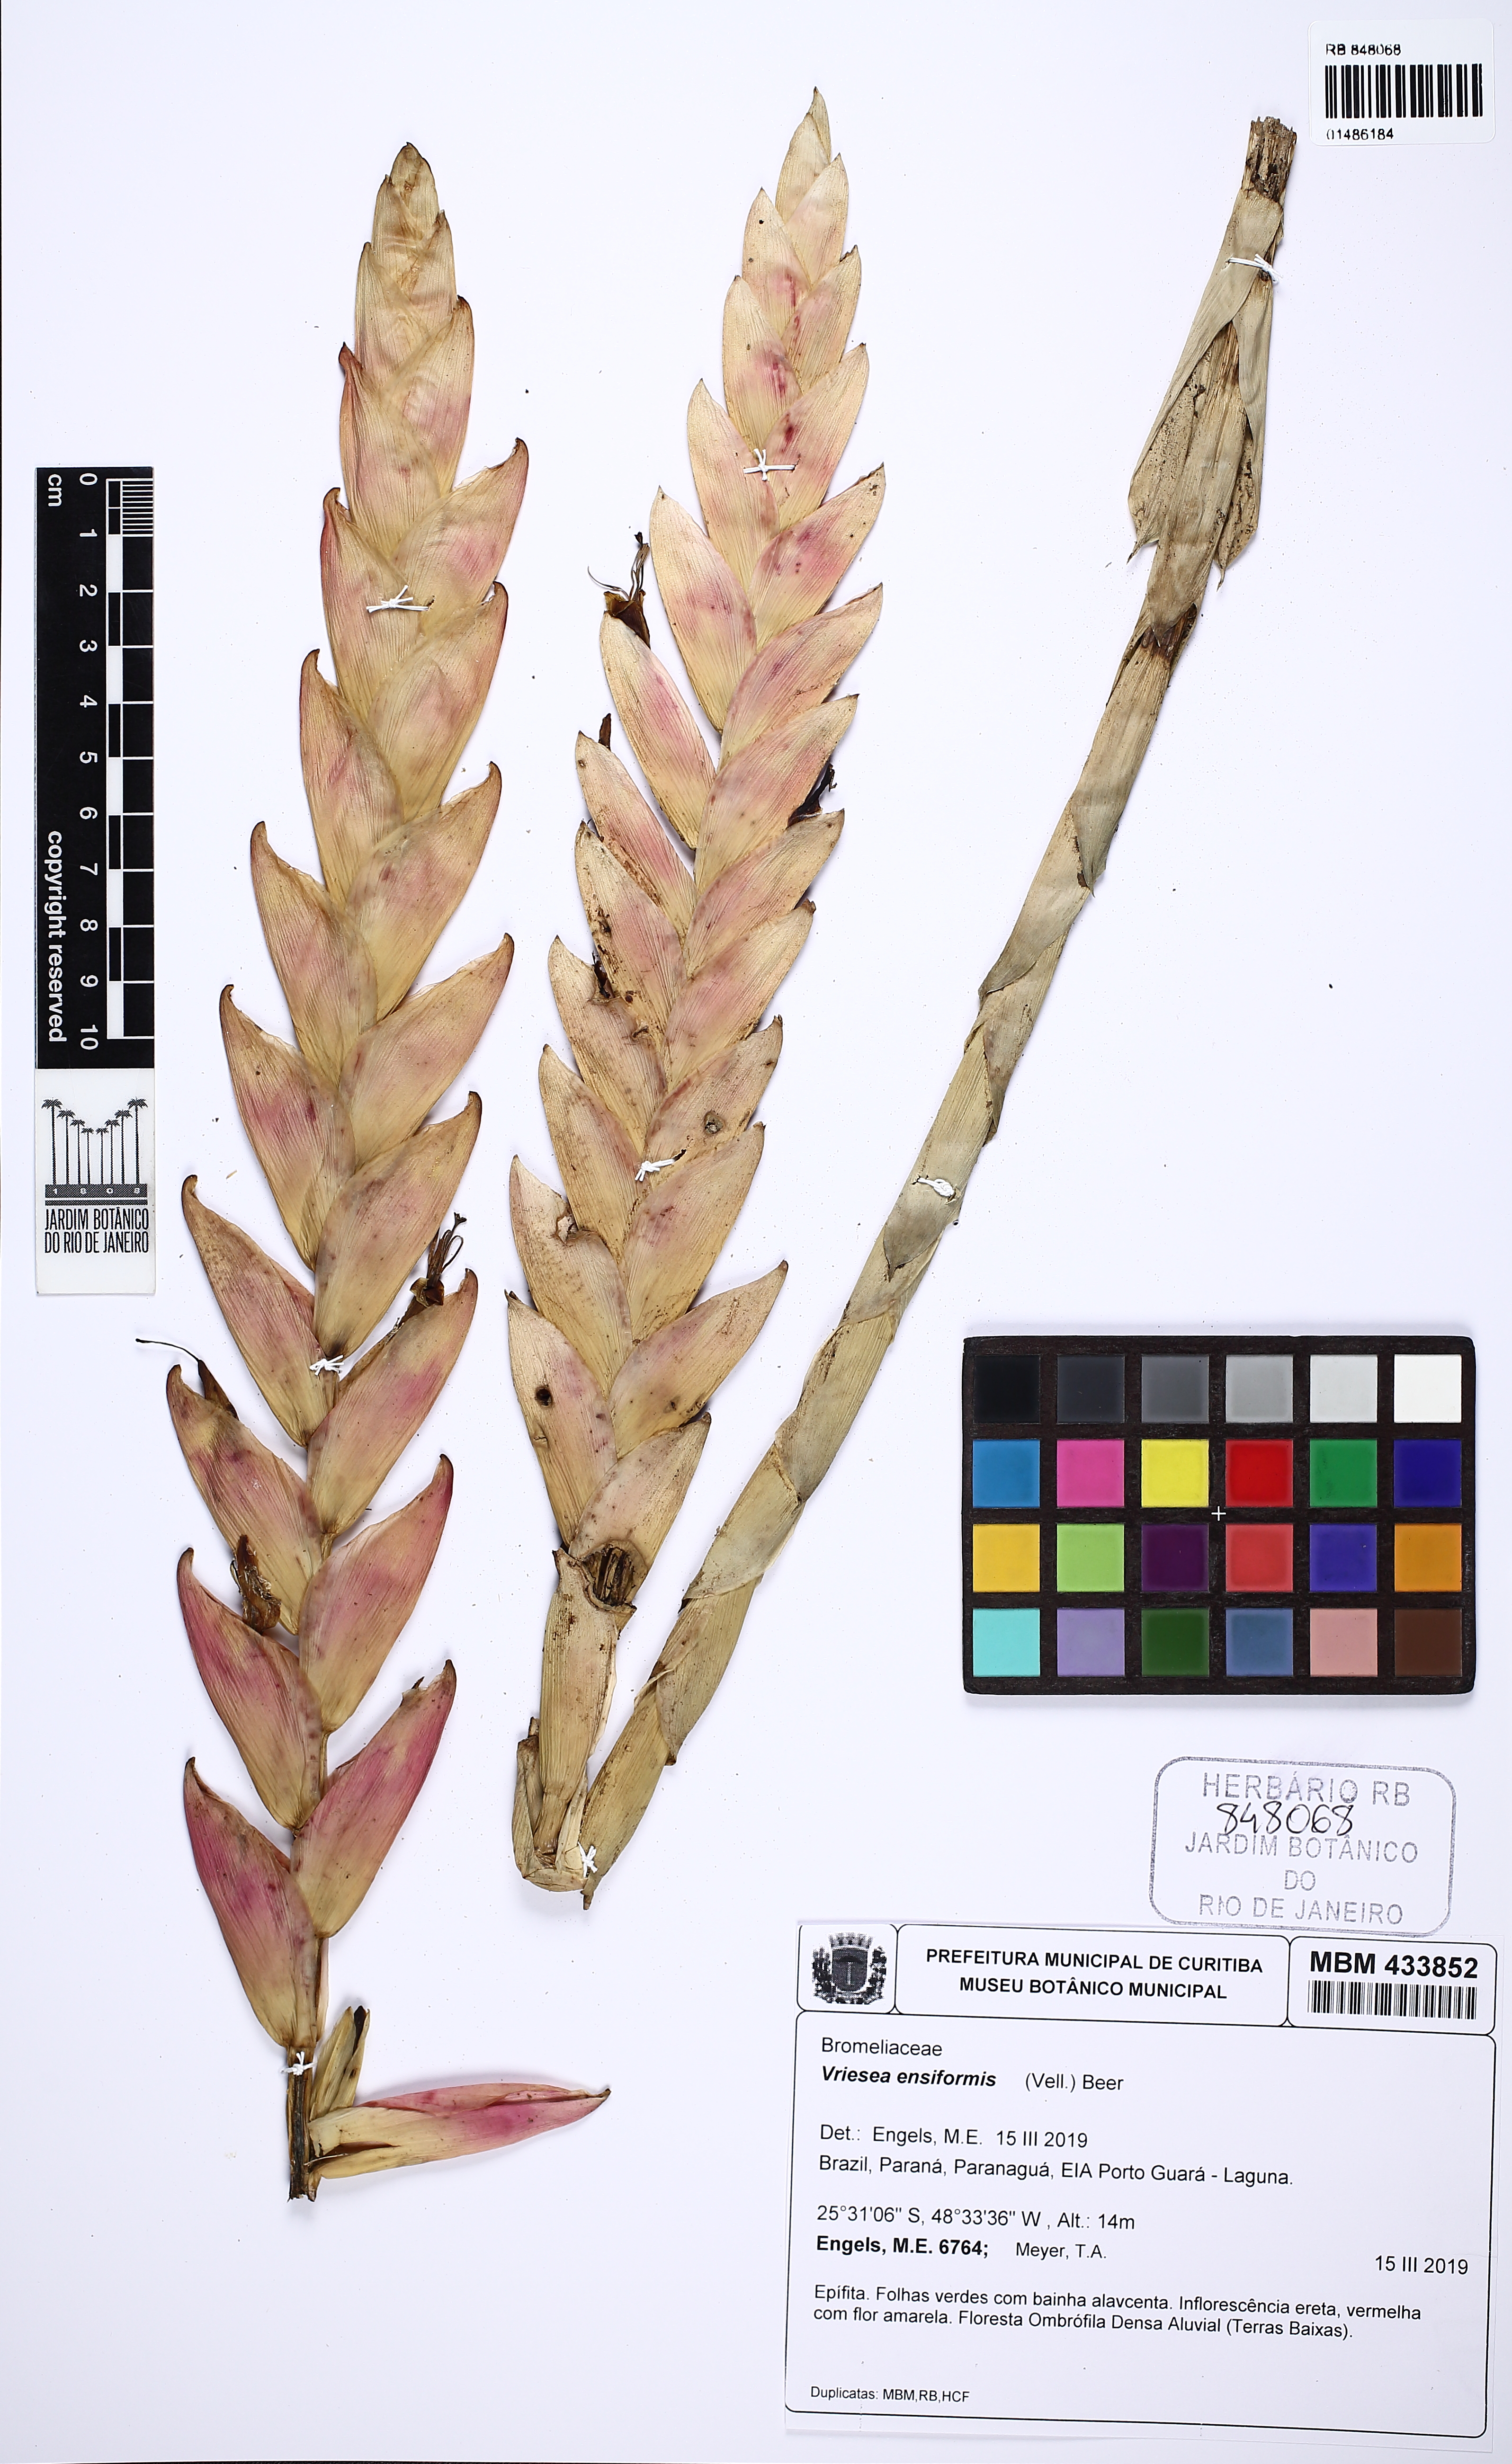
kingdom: Plantae
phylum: Tracheophyta
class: Liliopsida
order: Poales
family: Bromeliaceae
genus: Vriesea
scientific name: Vriesea ensiformis
